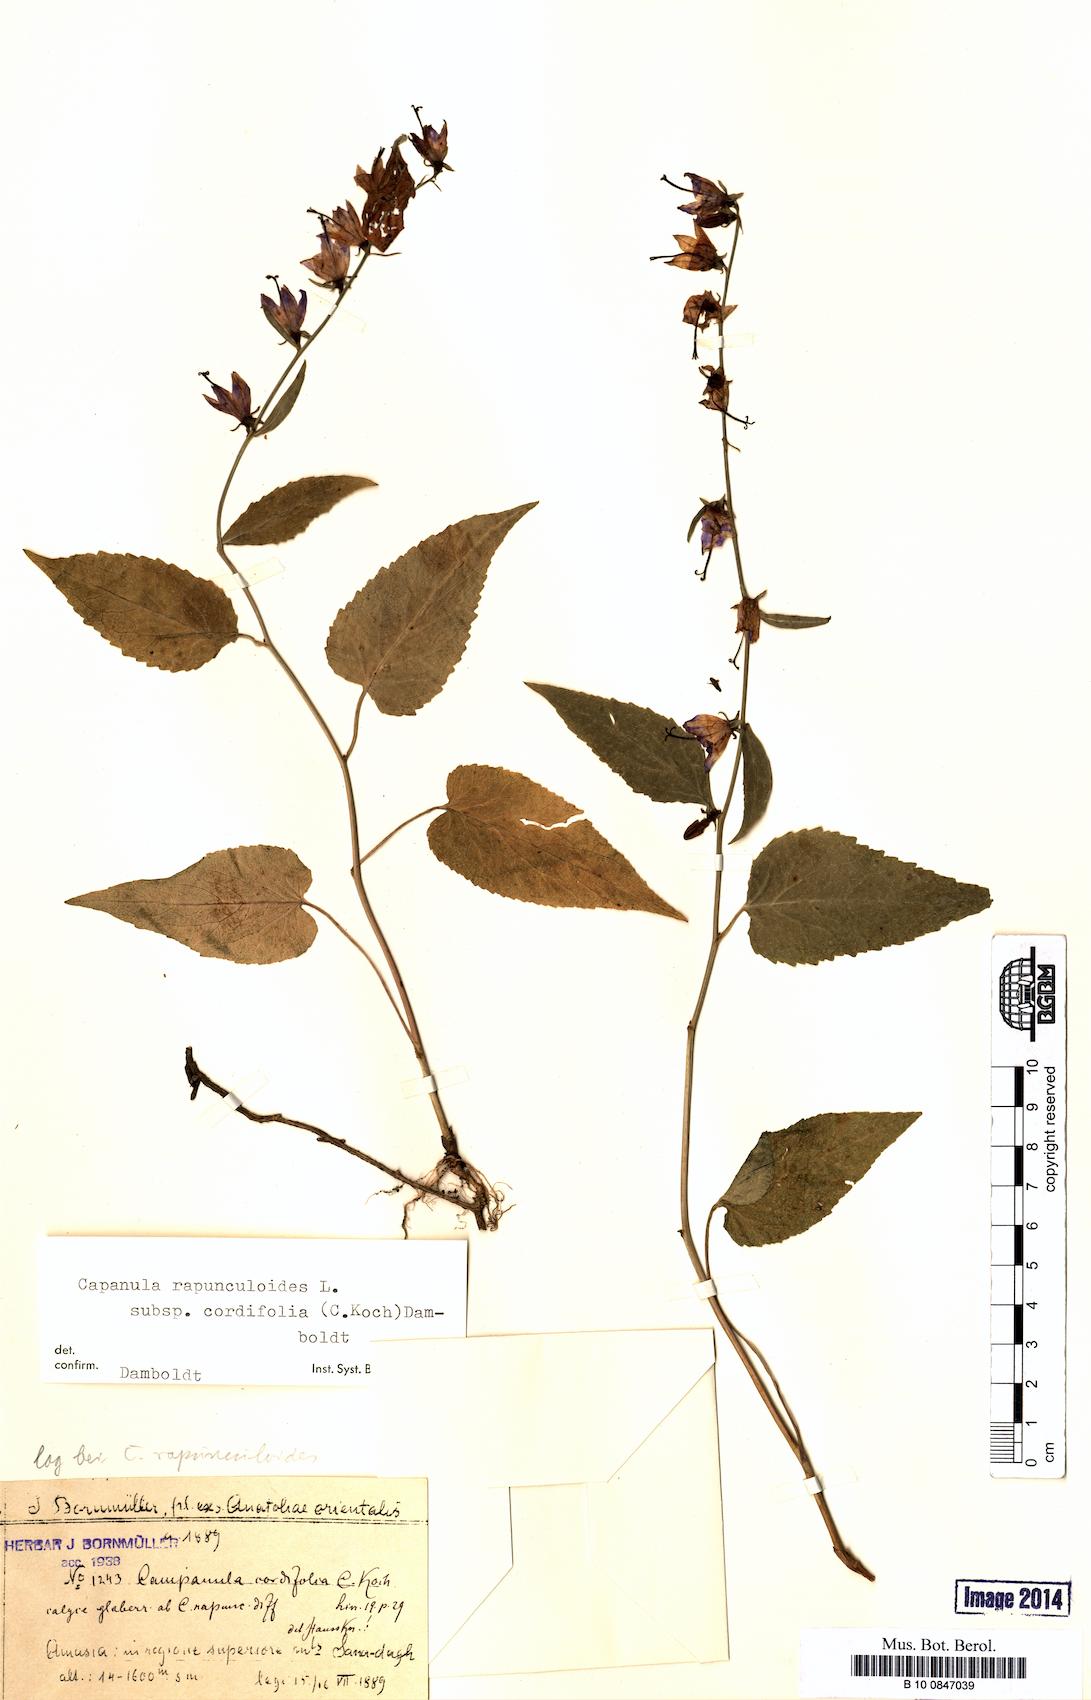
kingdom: Plantae
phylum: Tracheophyta
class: Magnoliopsida
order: Asterales
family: Campanulaceae
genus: Campanula
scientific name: Campanula rapunculoides
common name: Creeping bellflower
